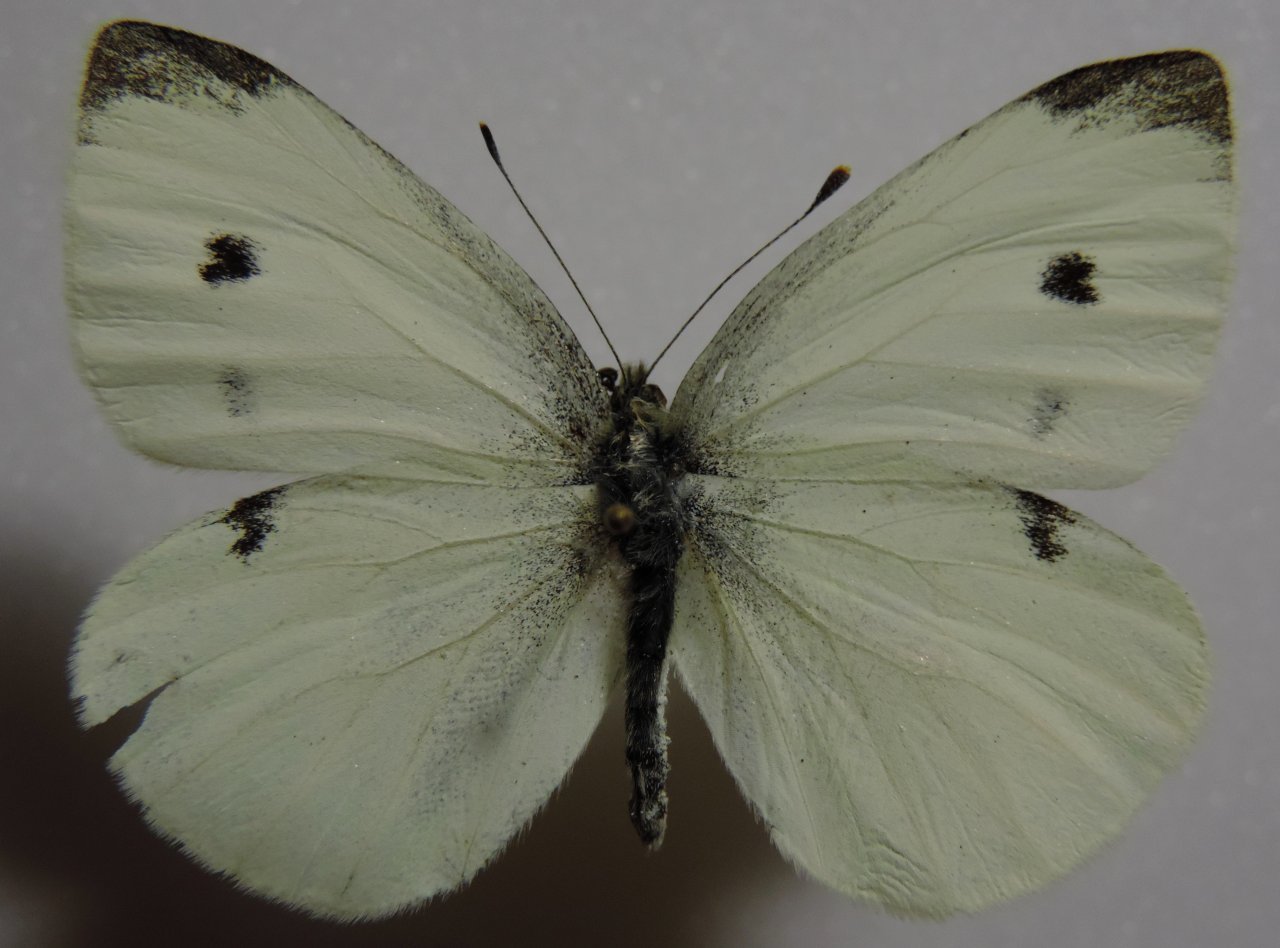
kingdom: Animalia
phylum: Arthropoda
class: Insecta
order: Lepidoptera
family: Pieridae
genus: Pieris
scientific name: Pieris rapae
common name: Cabbage White
